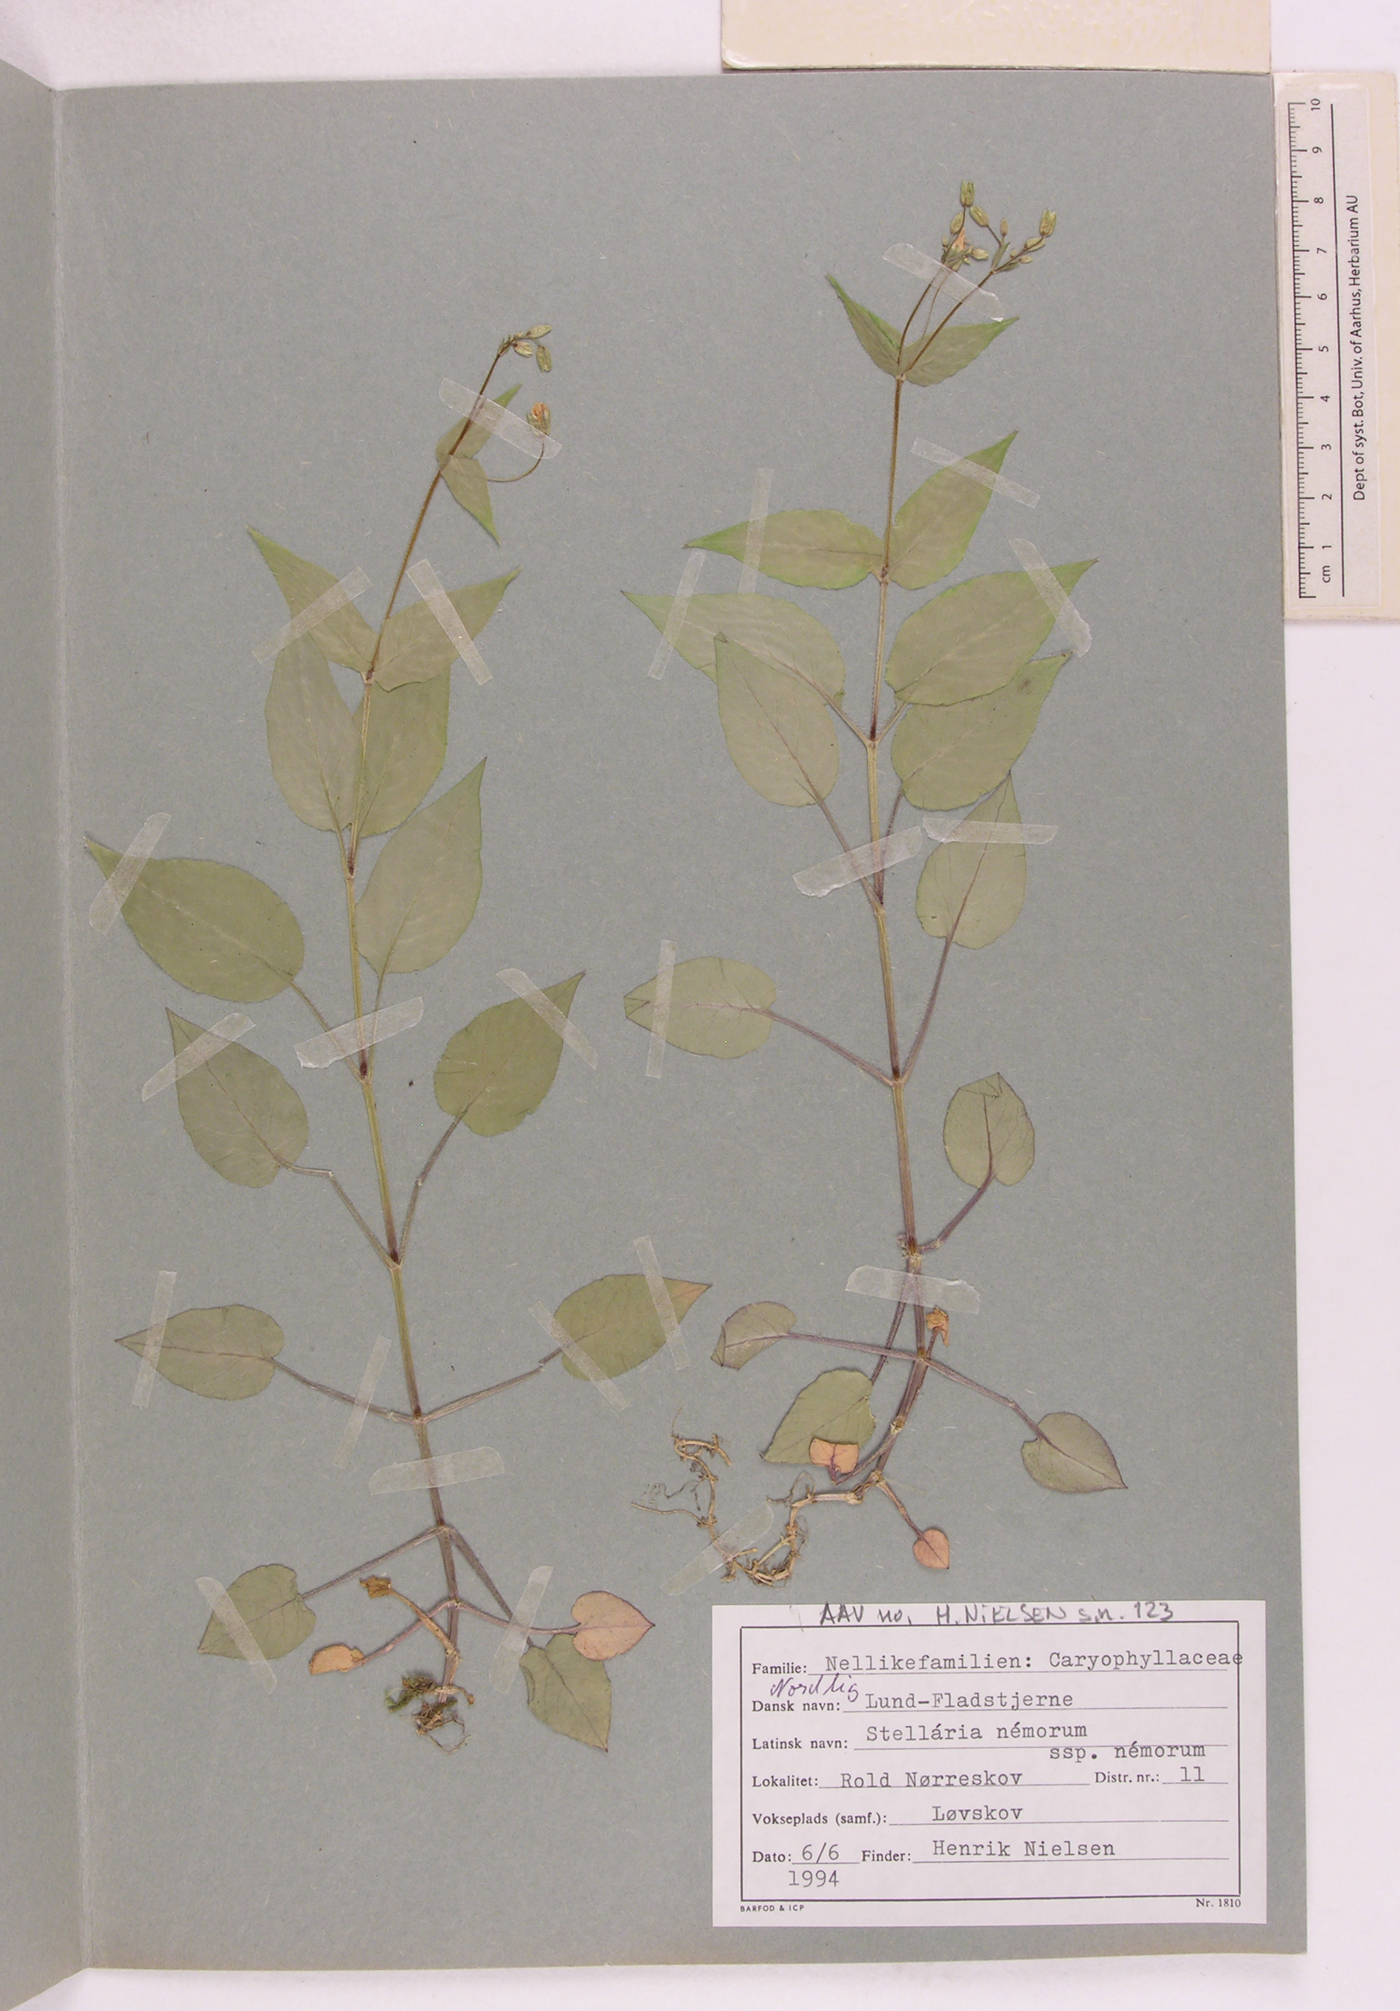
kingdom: Plantae
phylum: Tracheophyta
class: Magnoliopsida
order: Caryophyllales
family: Caryophyllaceae
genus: Stellaria
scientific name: Stellaria nemorum
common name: Wood stitchwort
